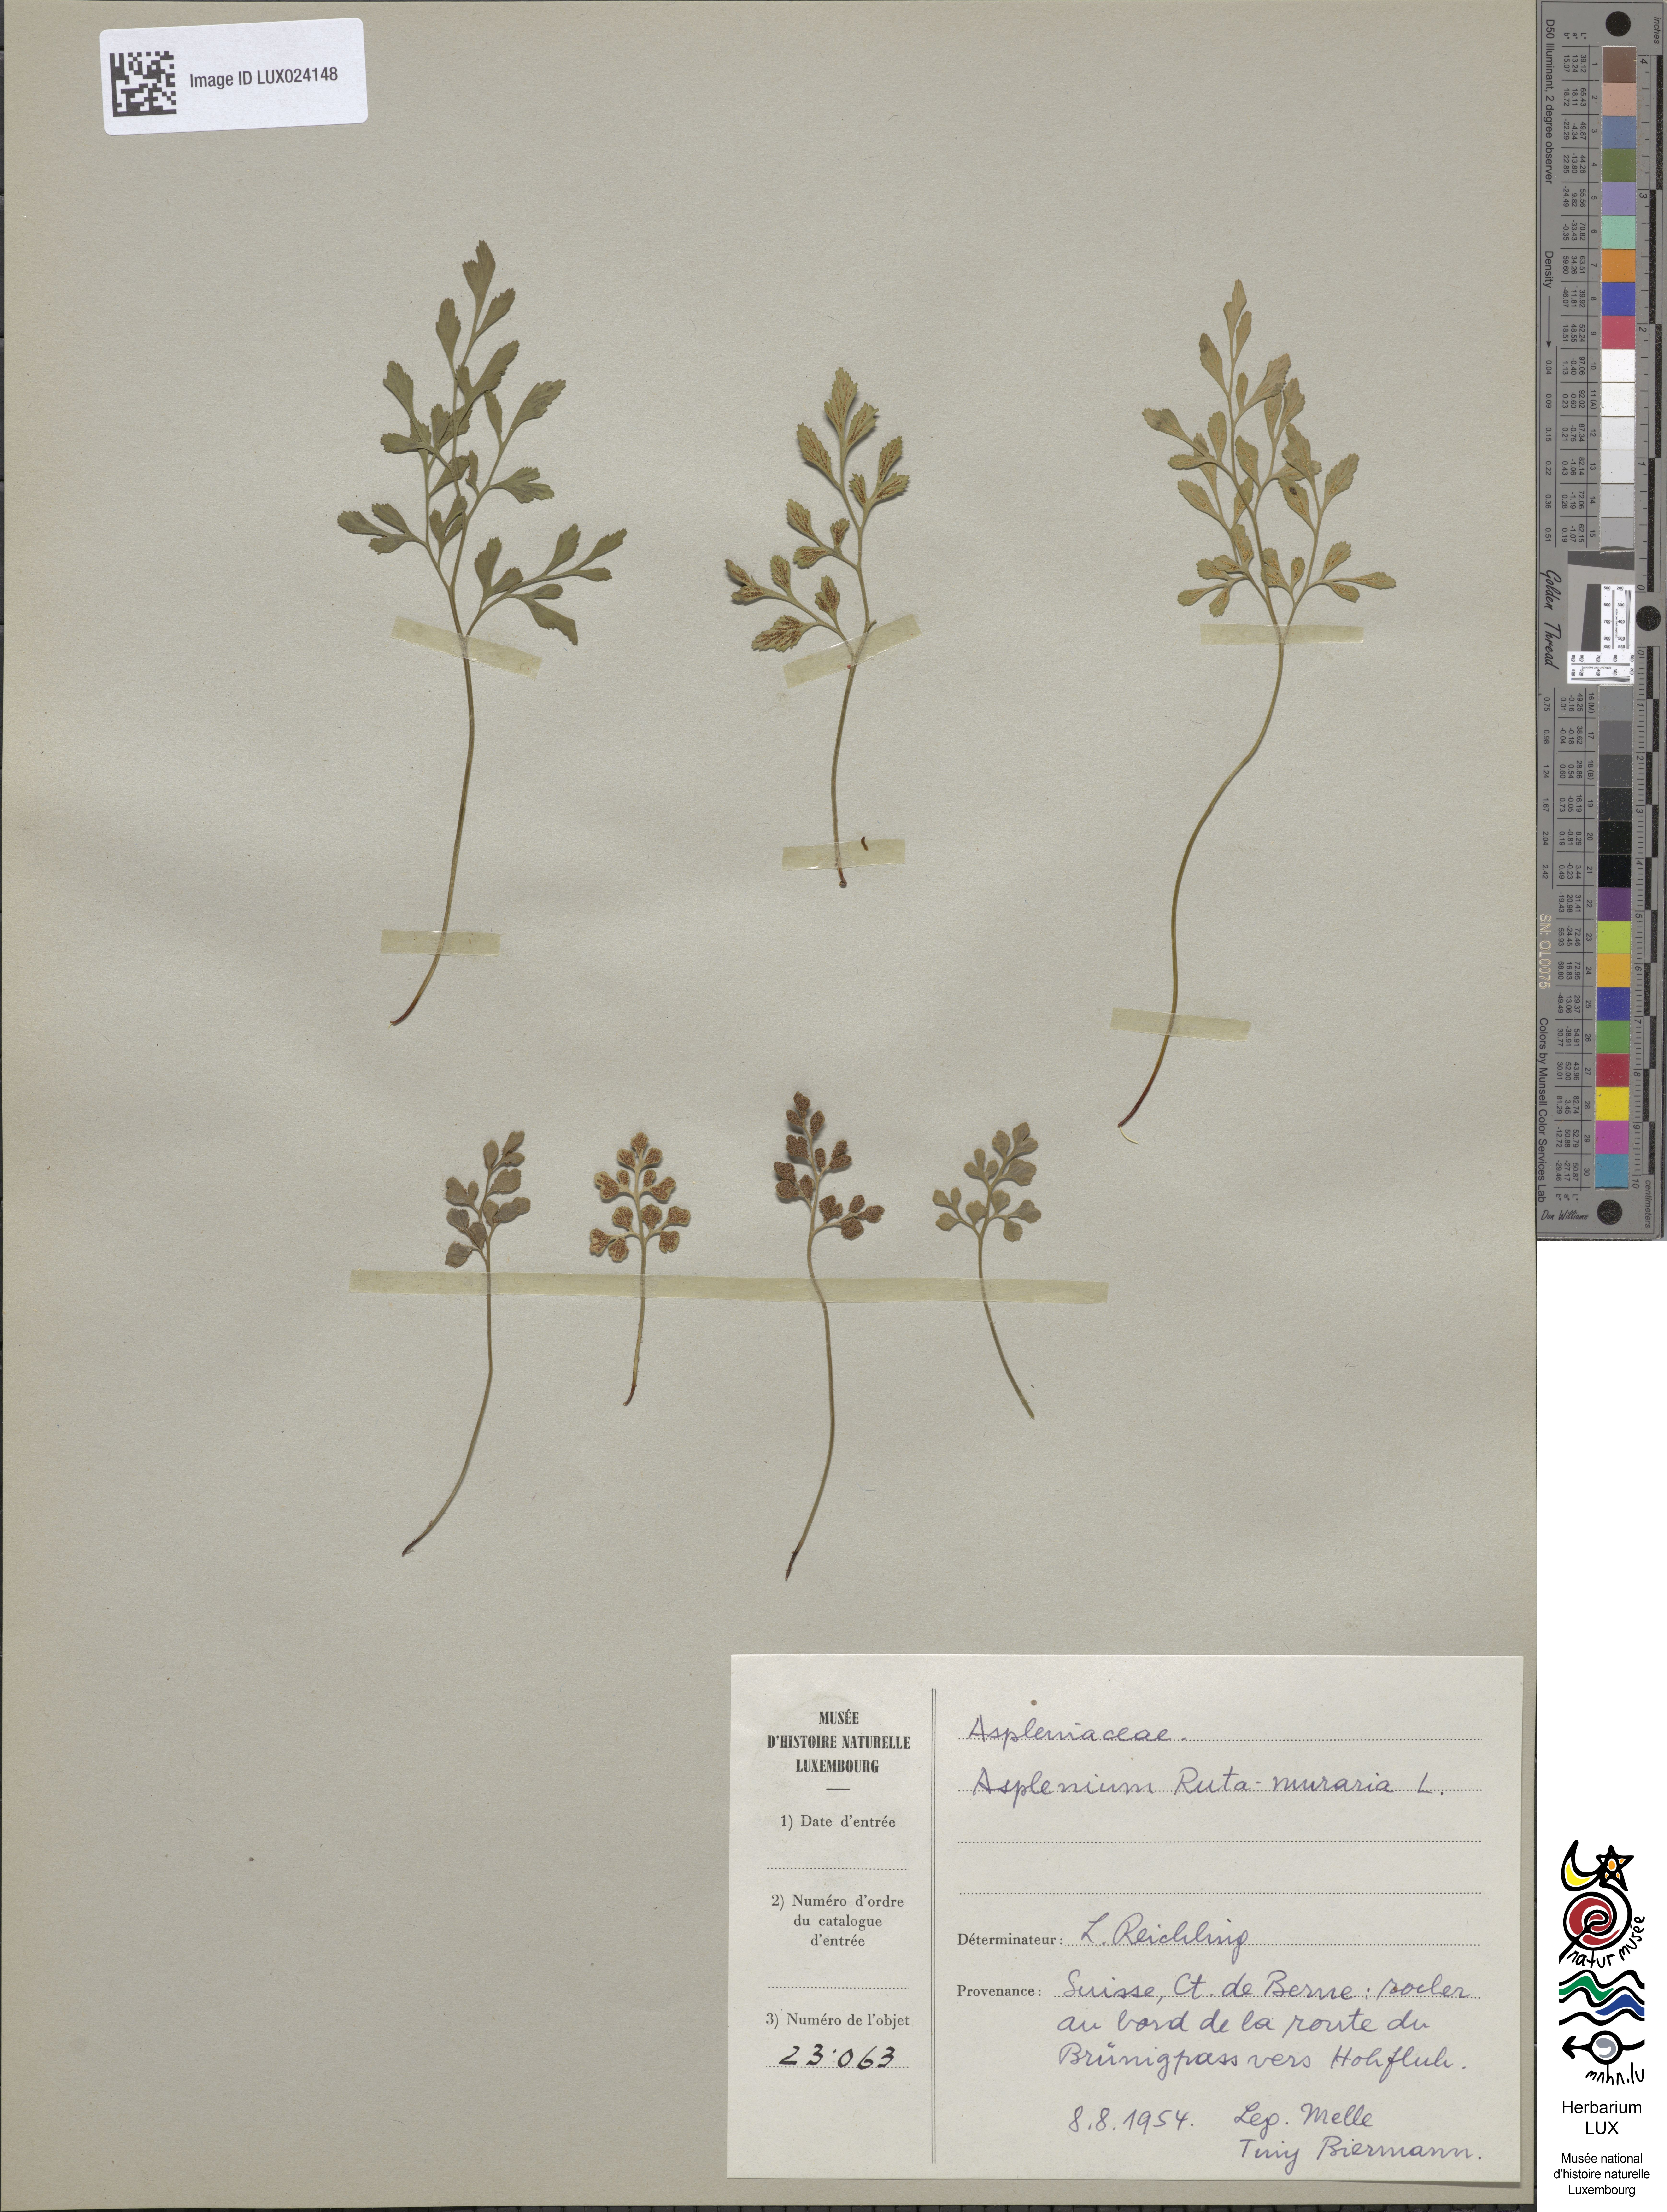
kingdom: Plantae
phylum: Tracheophyta
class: Polypodiopsida
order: Polypodiales
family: Aspleniaceae
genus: Asplenium
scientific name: Asplenium ruta-muraria
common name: Wall-rue
